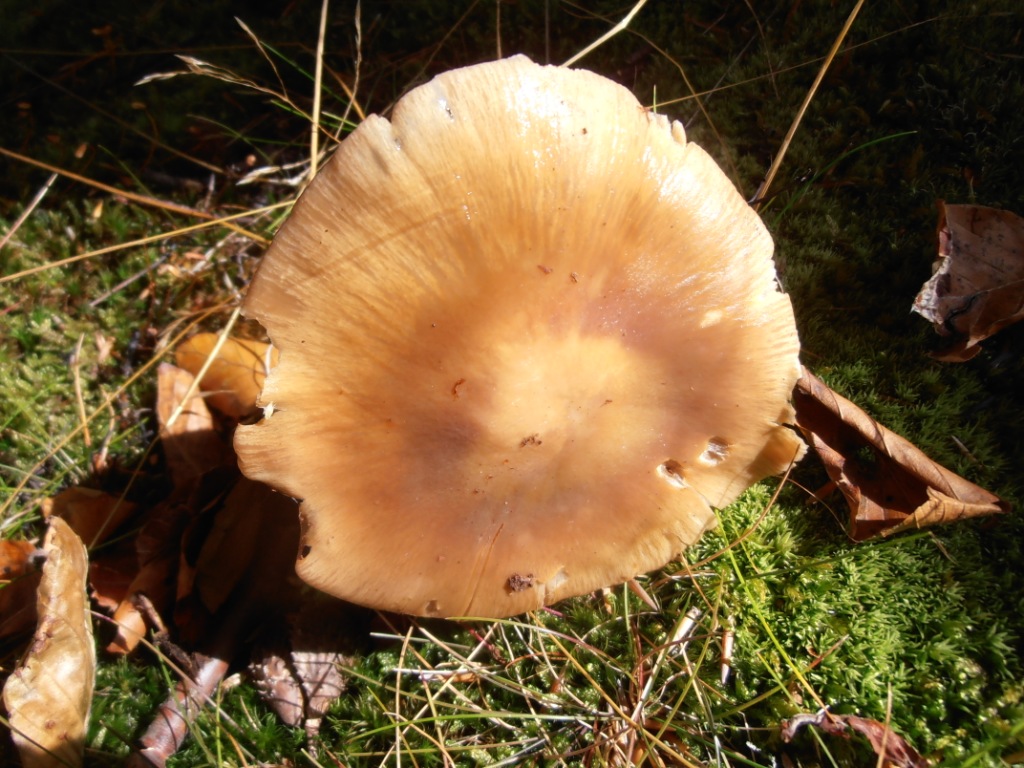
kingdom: Fungi
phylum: Basidiomycota
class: Agaricomycetes
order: Agaricales
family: Cortinariaceae
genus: Cortinarius
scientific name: Cortinarius elatior
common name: høj slørhat
